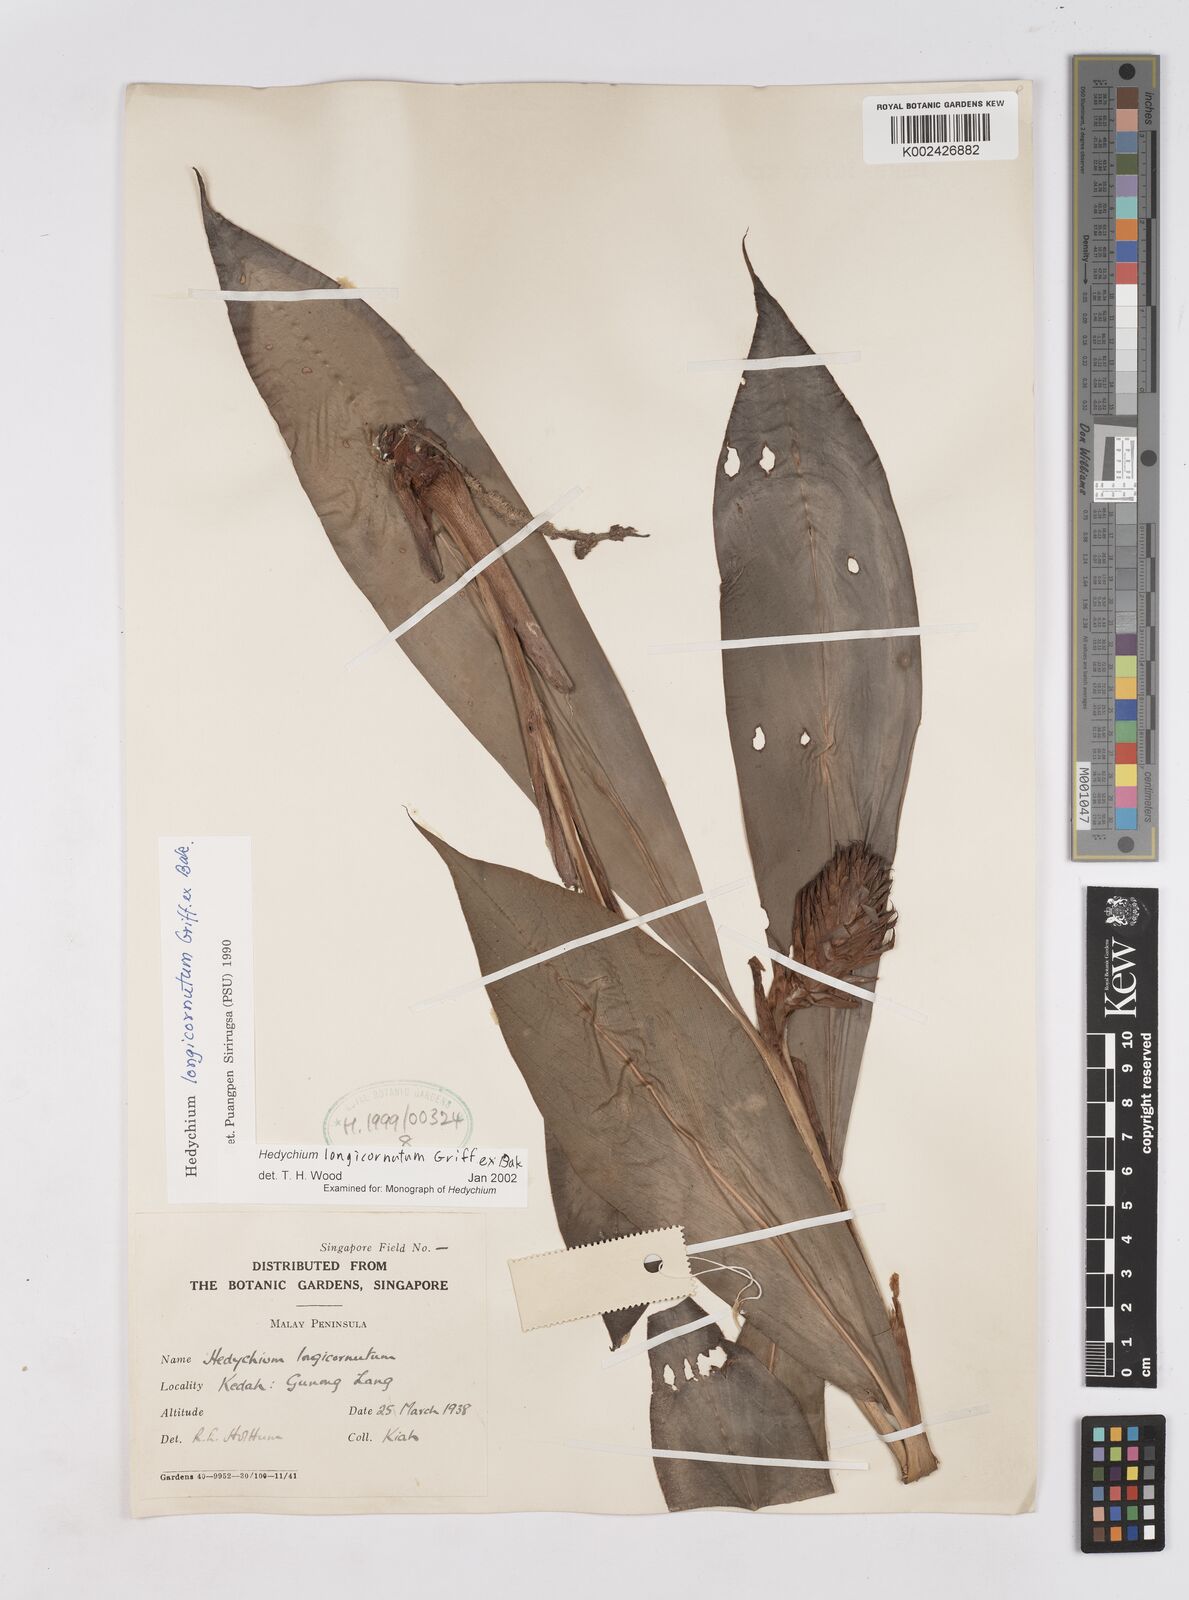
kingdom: Plantae
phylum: Tracheophyta
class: Liliopsida
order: Zingiberales
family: Zingiberaceae
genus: Hedychium
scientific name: Hedychium longicornutum
